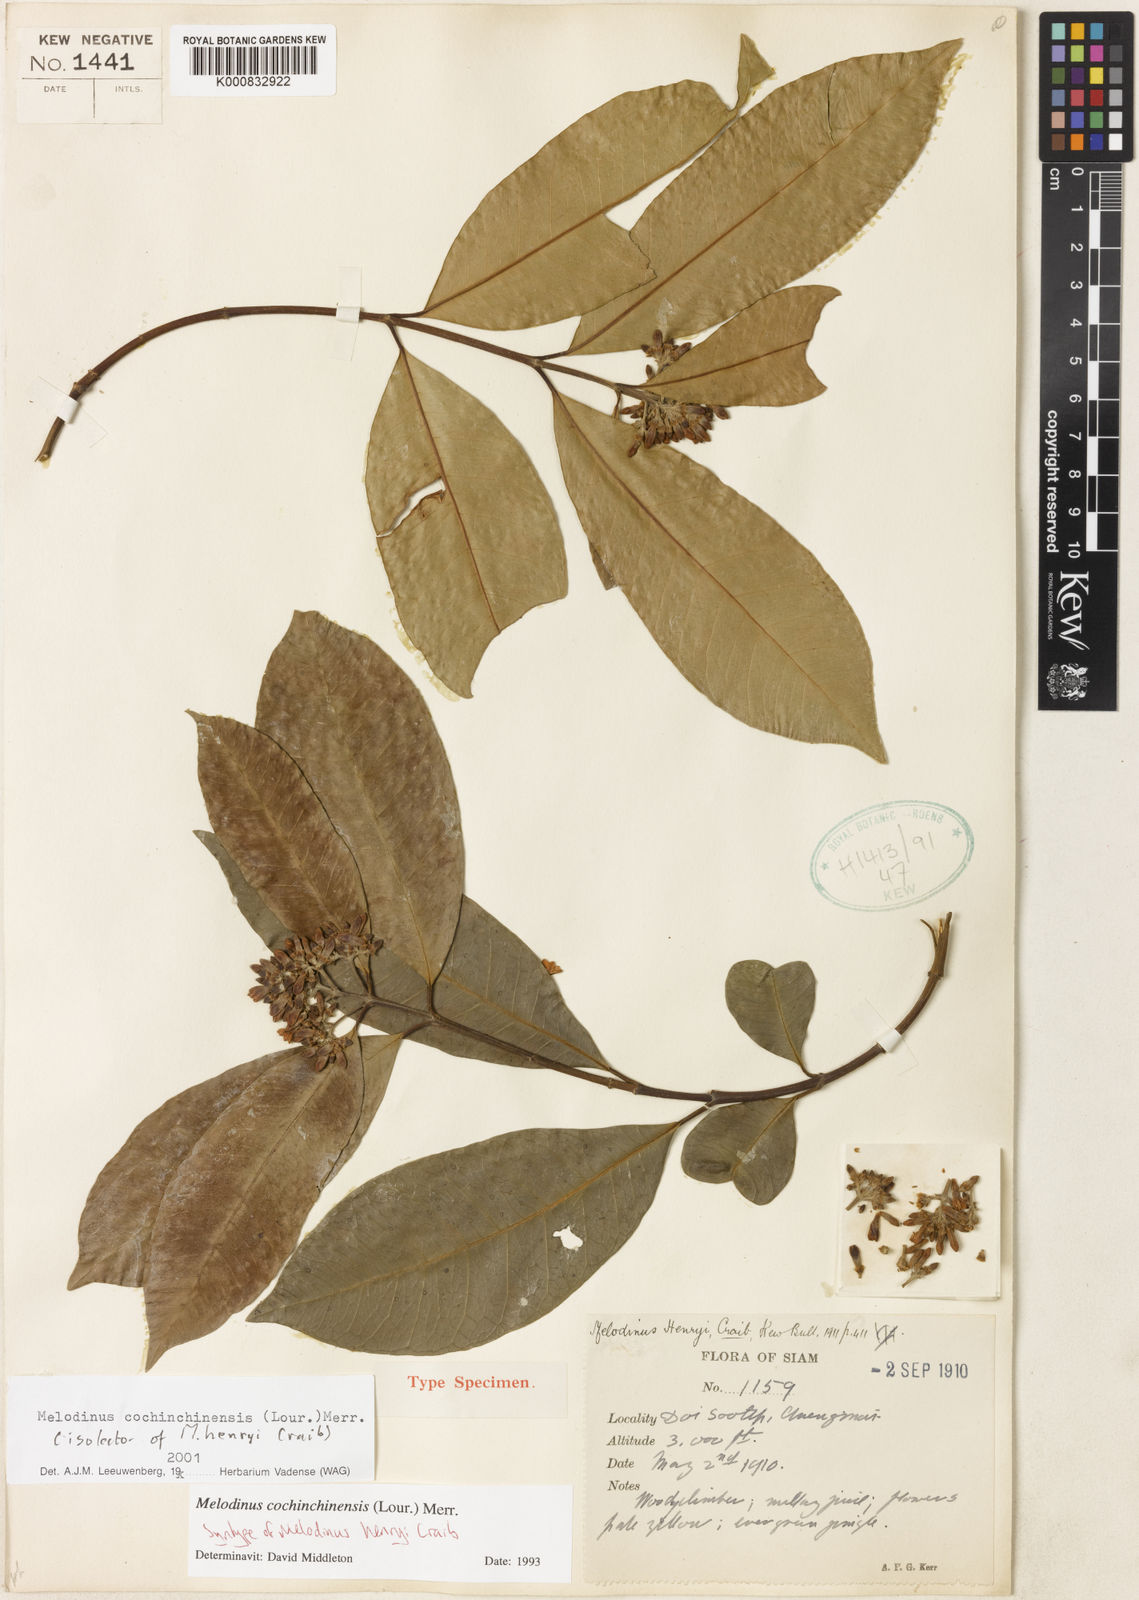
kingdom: Plantae
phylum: Tracheophyta
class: Magnoliopsida
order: Gentianales
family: Apocynaceae
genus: Melodinus
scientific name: Melodinus cochinchinensis
